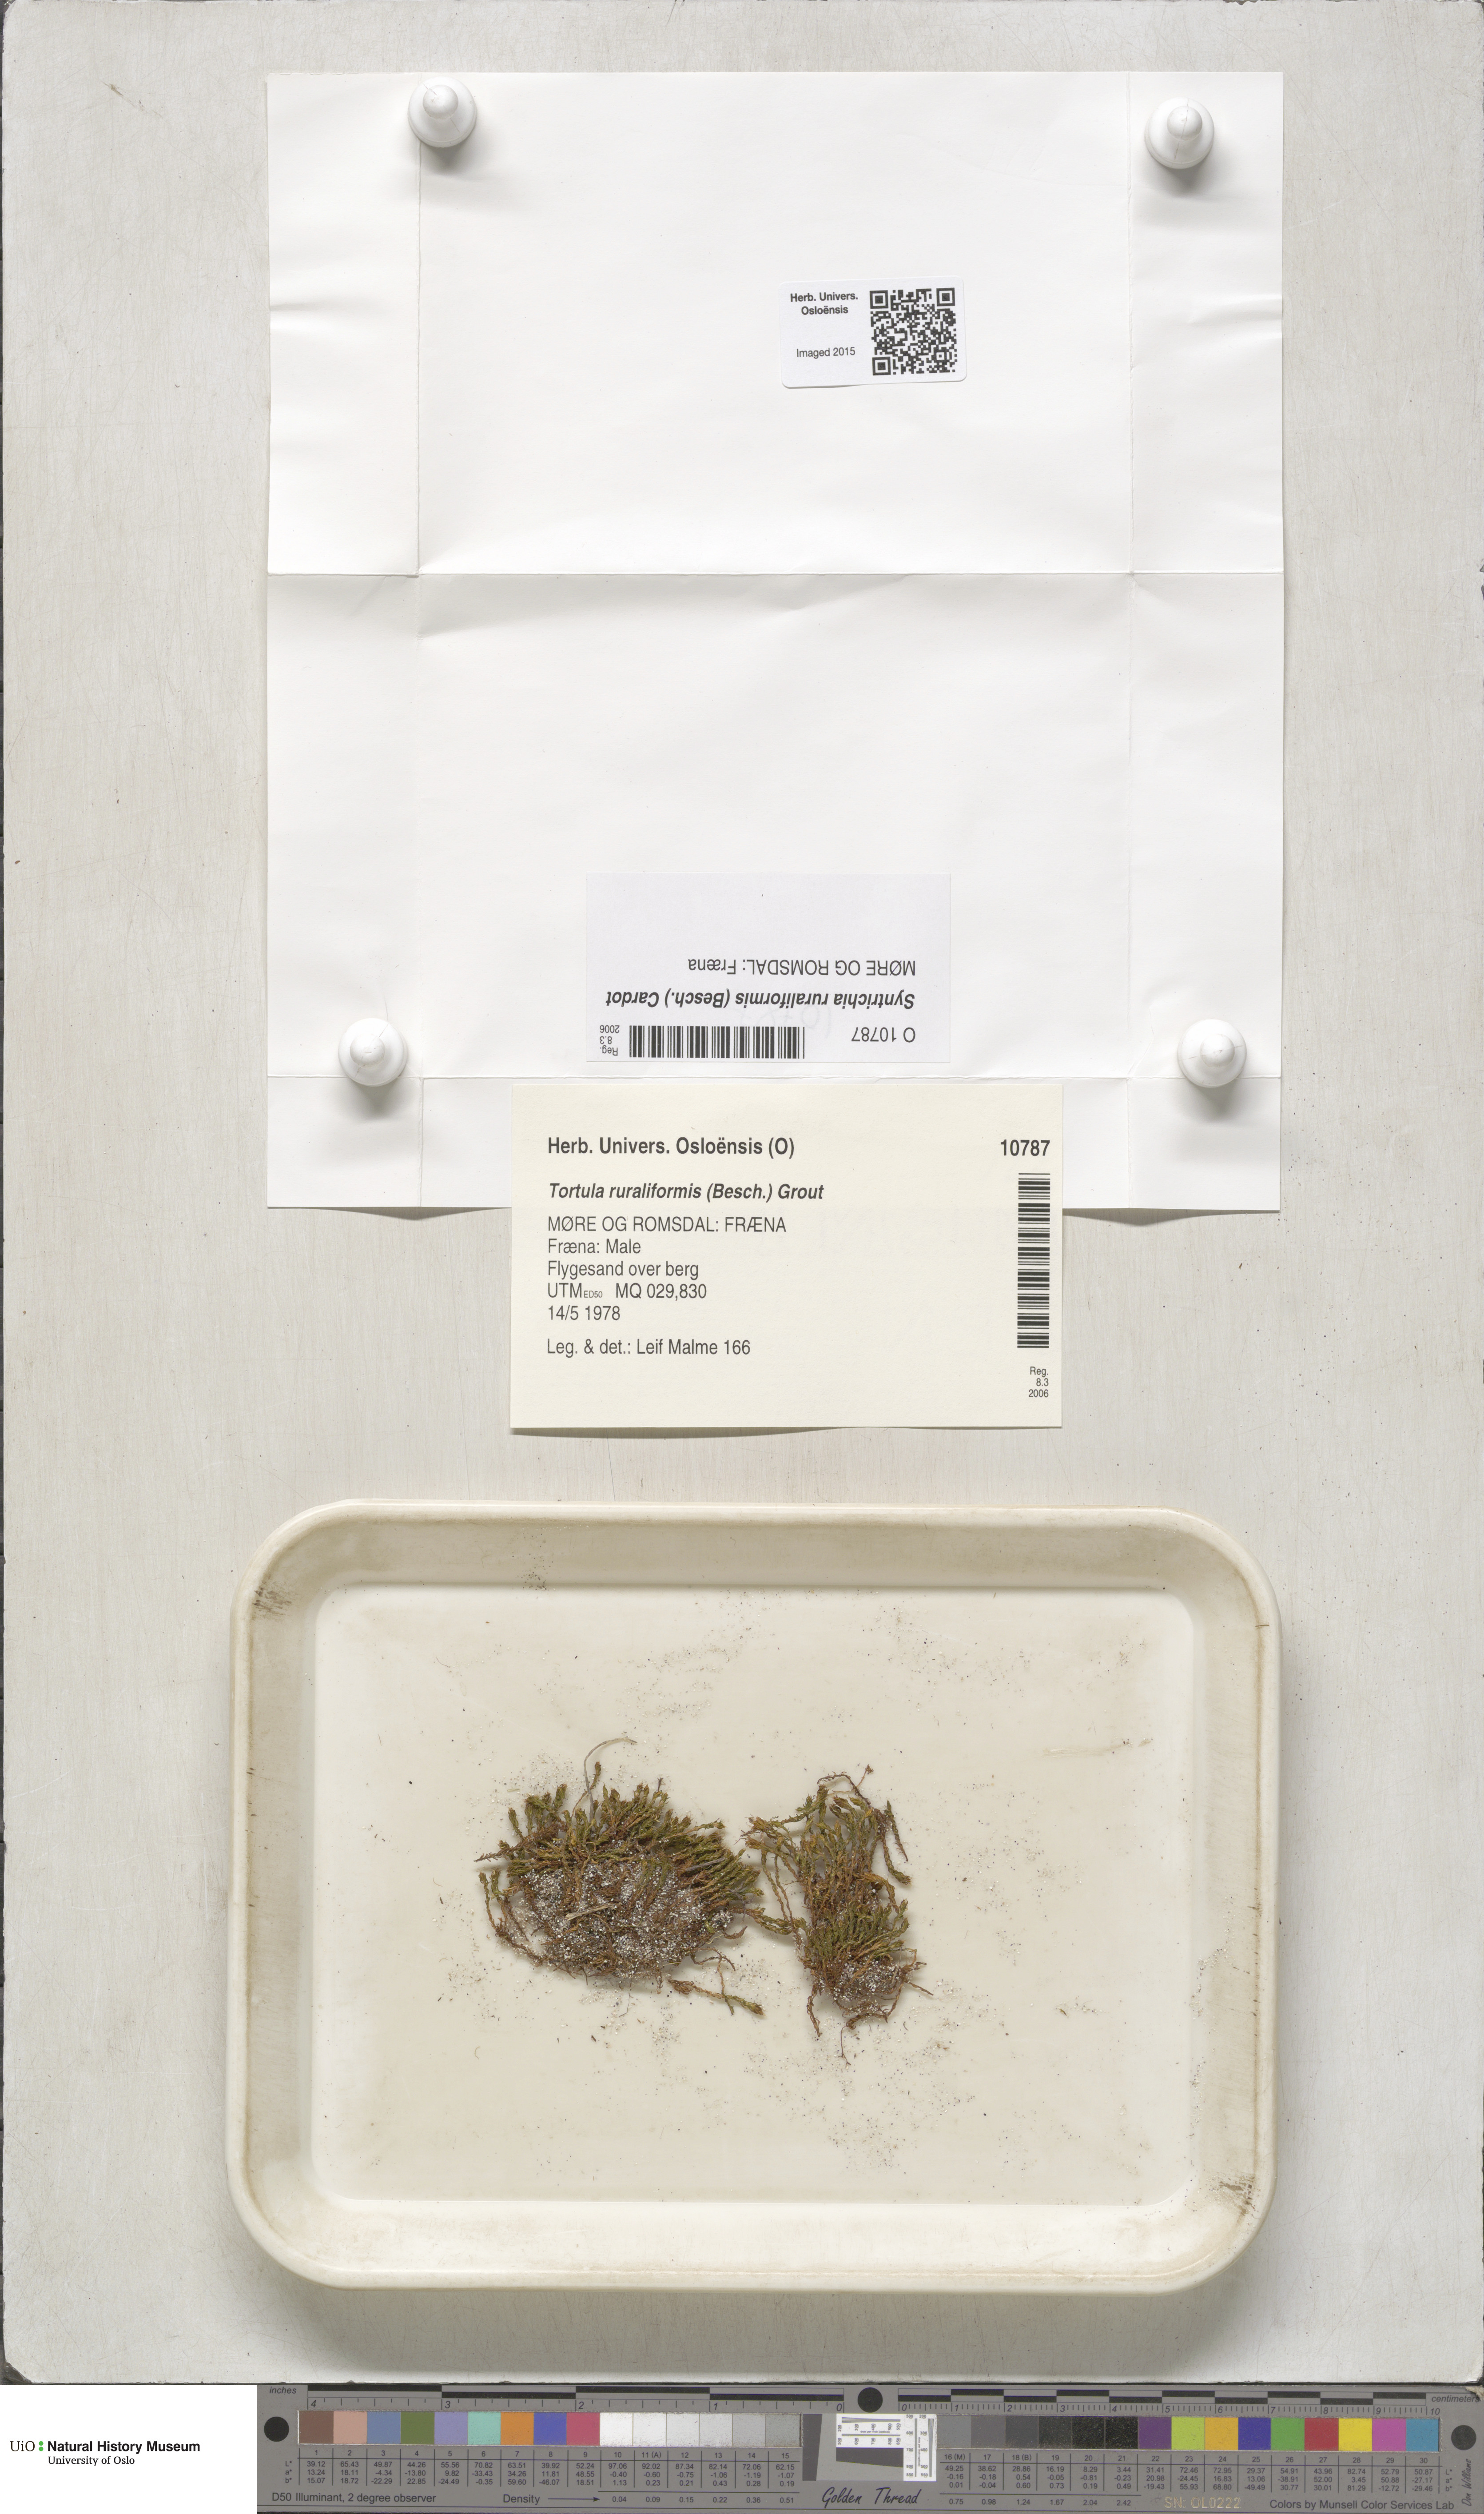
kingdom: Plantae
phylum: Bryophyta
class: Bryopsida
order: Pottiales
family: Pottiaceae
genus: Syntrichia
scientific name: Syntrichia ruralis
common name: Sidewalk screw moss
